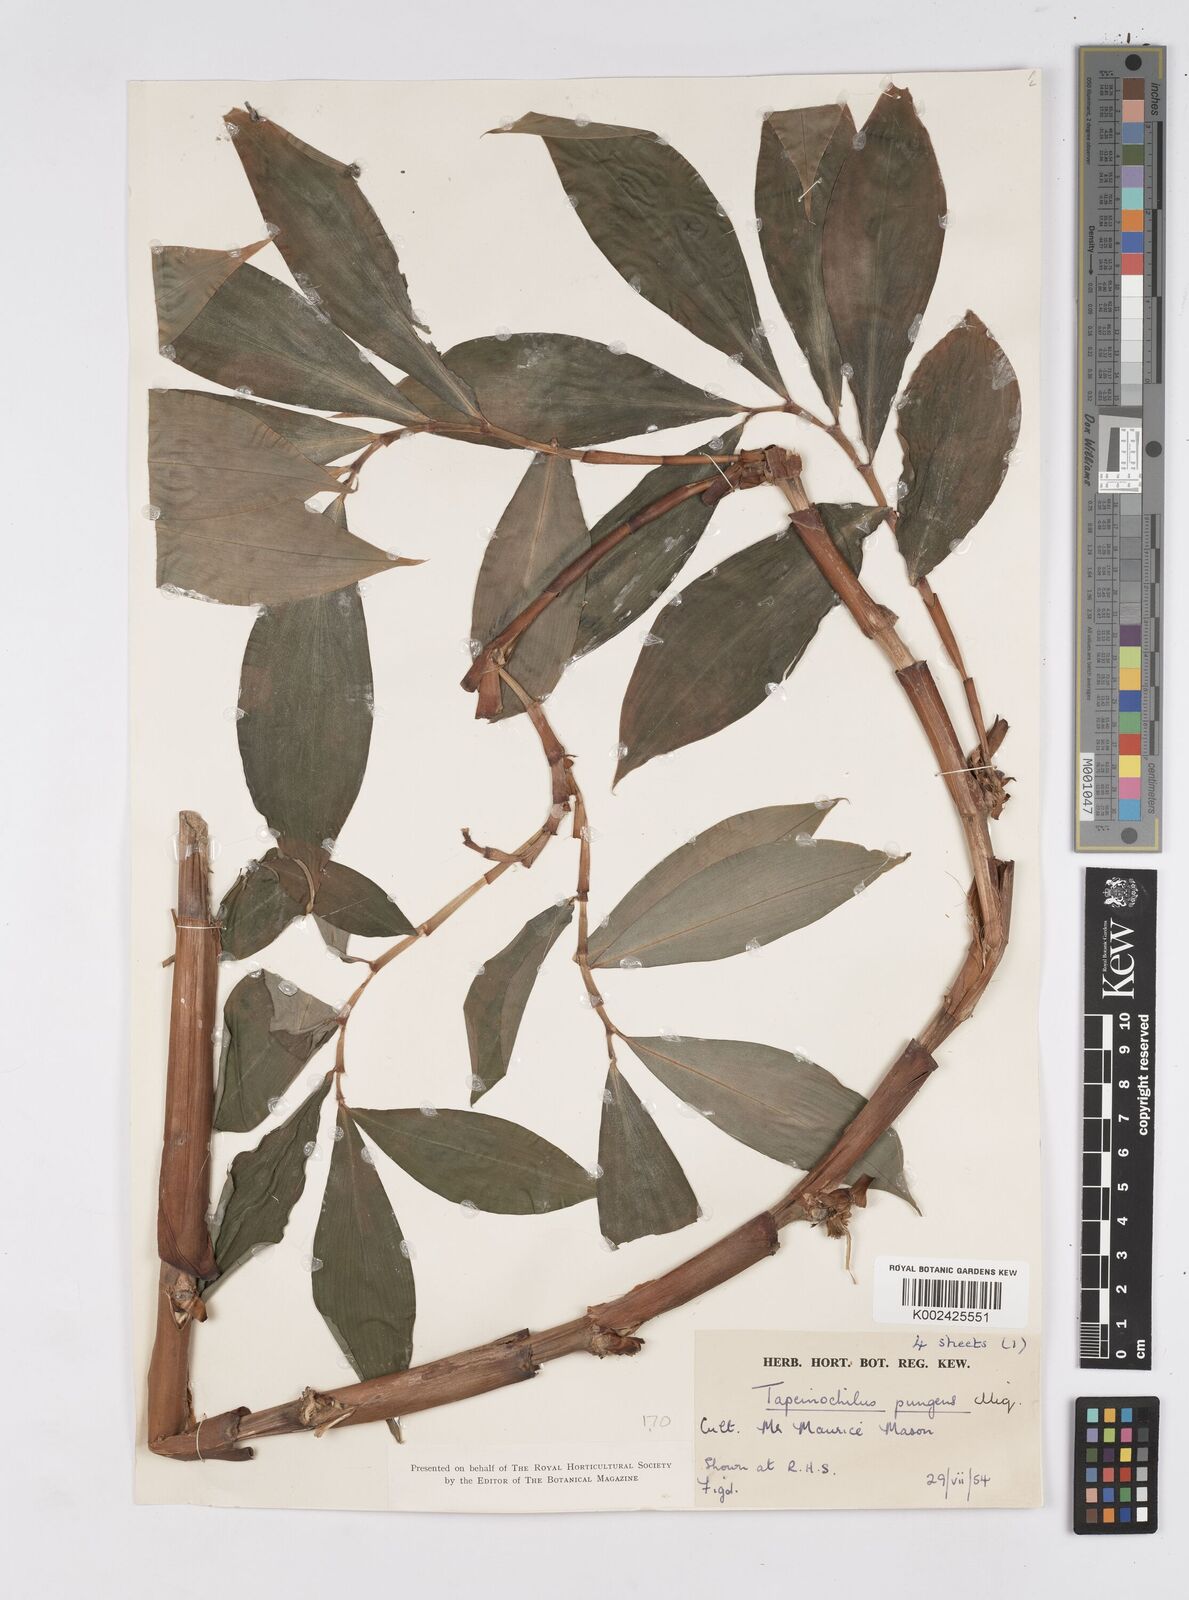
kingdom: Plantae
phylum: Tracheophyta
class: Liliopsida
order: Zingiberales
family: Costaceae
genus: Tapeinochilos
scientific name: Tapeinochilos ananassae
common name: Torch-ginger
